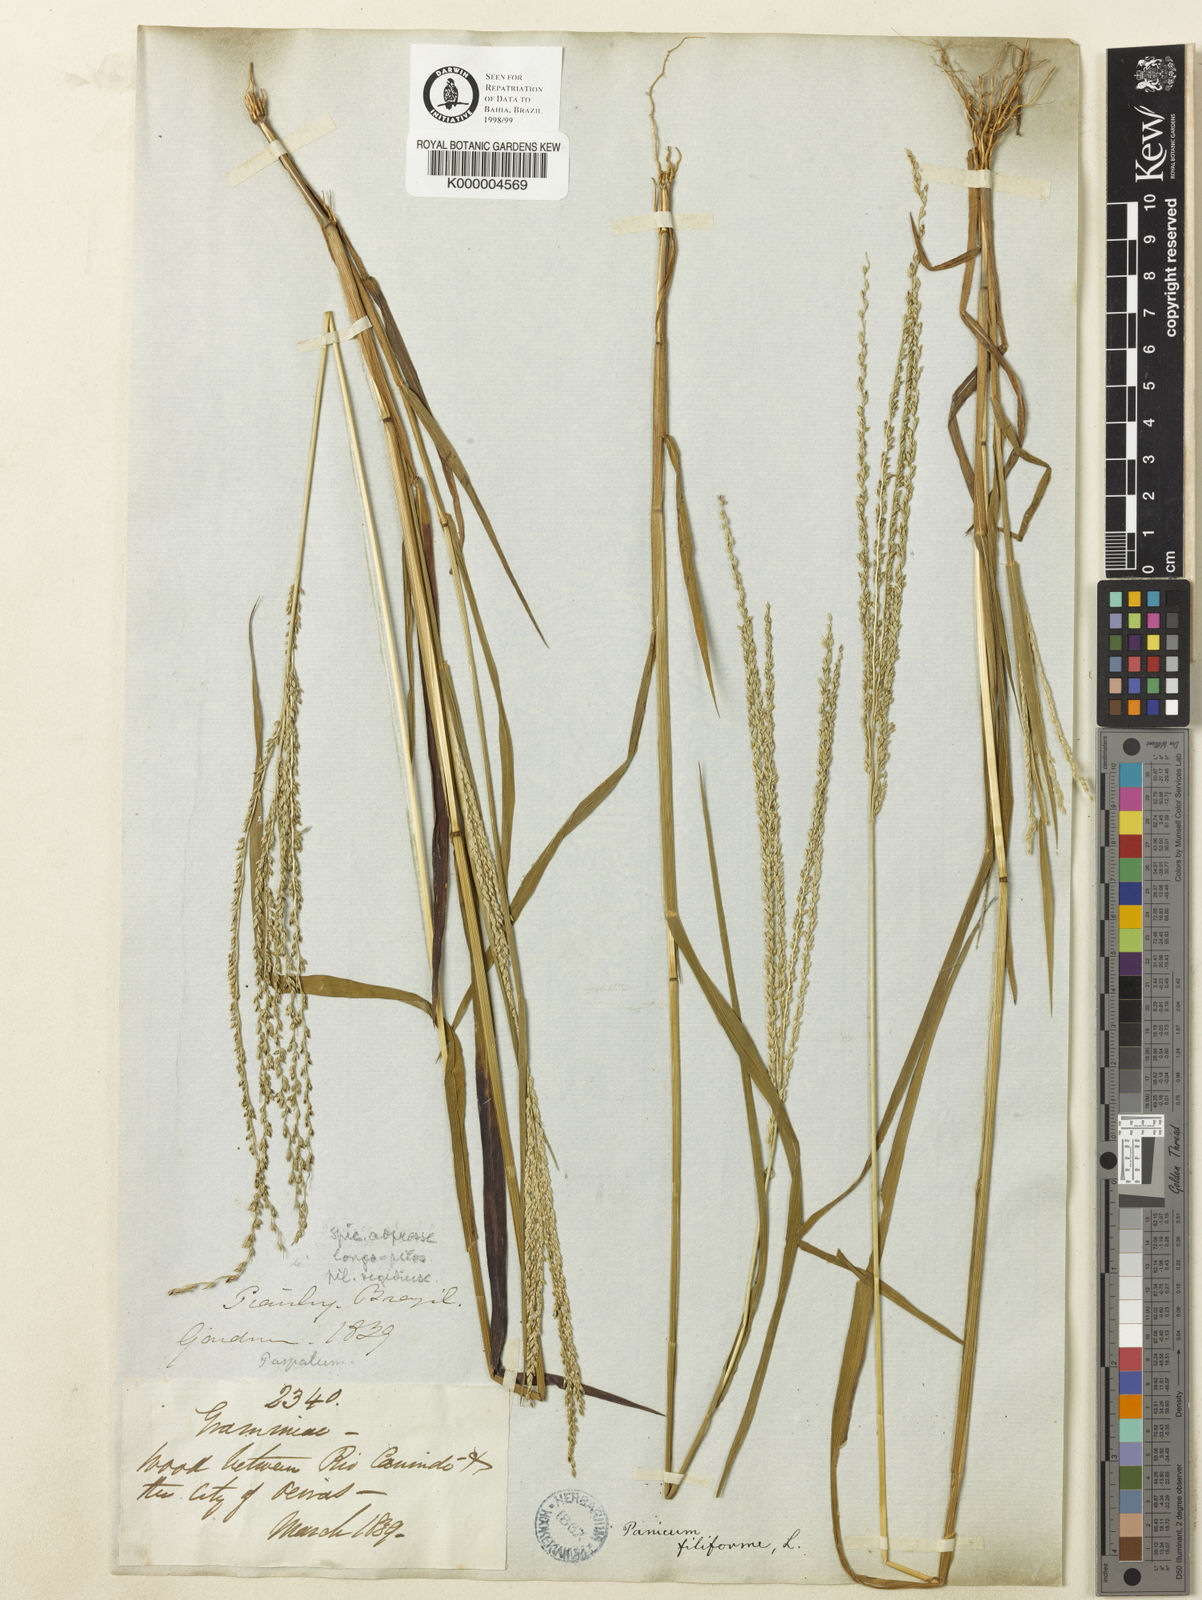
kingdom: Plantae
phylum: Tracheophyta
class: Liliopsida
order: Poales
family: Poaceae
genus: Digitaria
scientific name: Digitaria gardneri
